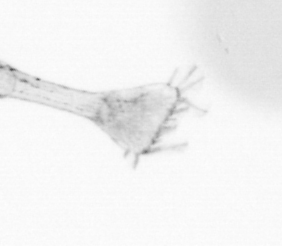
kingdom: Animalia
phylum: Arthropoda
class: Maxillopoda
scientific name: Maxillopoda
